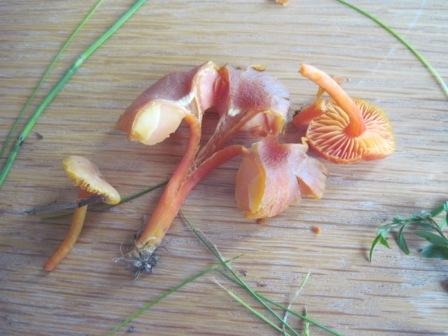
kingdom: Fungi
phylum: Basidiomycota
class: Agaricomycetes
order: Agaricales
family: Hygrophoraceae
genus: Hygrocybe
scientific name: Hygrocybe miniata
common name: mønje-vokshat
